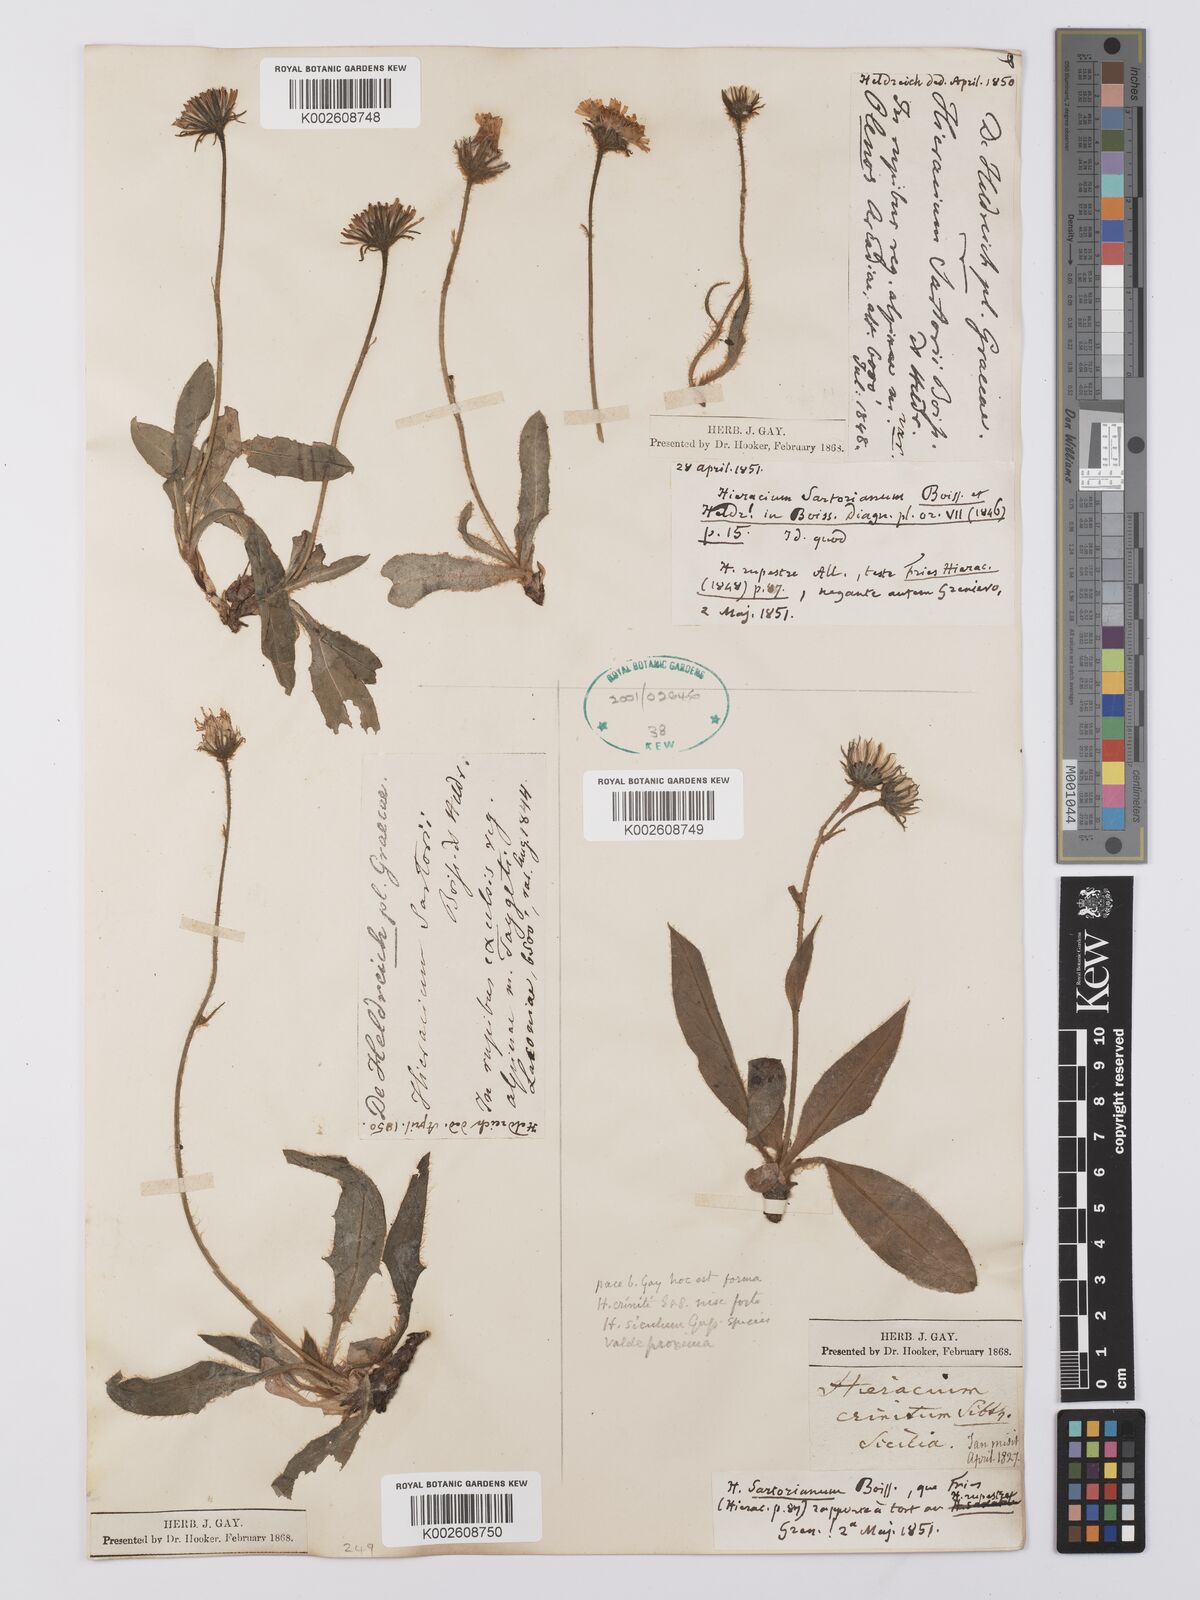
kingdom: Plantae
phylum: Tracheophyta
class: Magnoliopsida
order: Asterales
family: Asteraceae
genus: Hieracium
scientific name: Hieracium sartorianum
